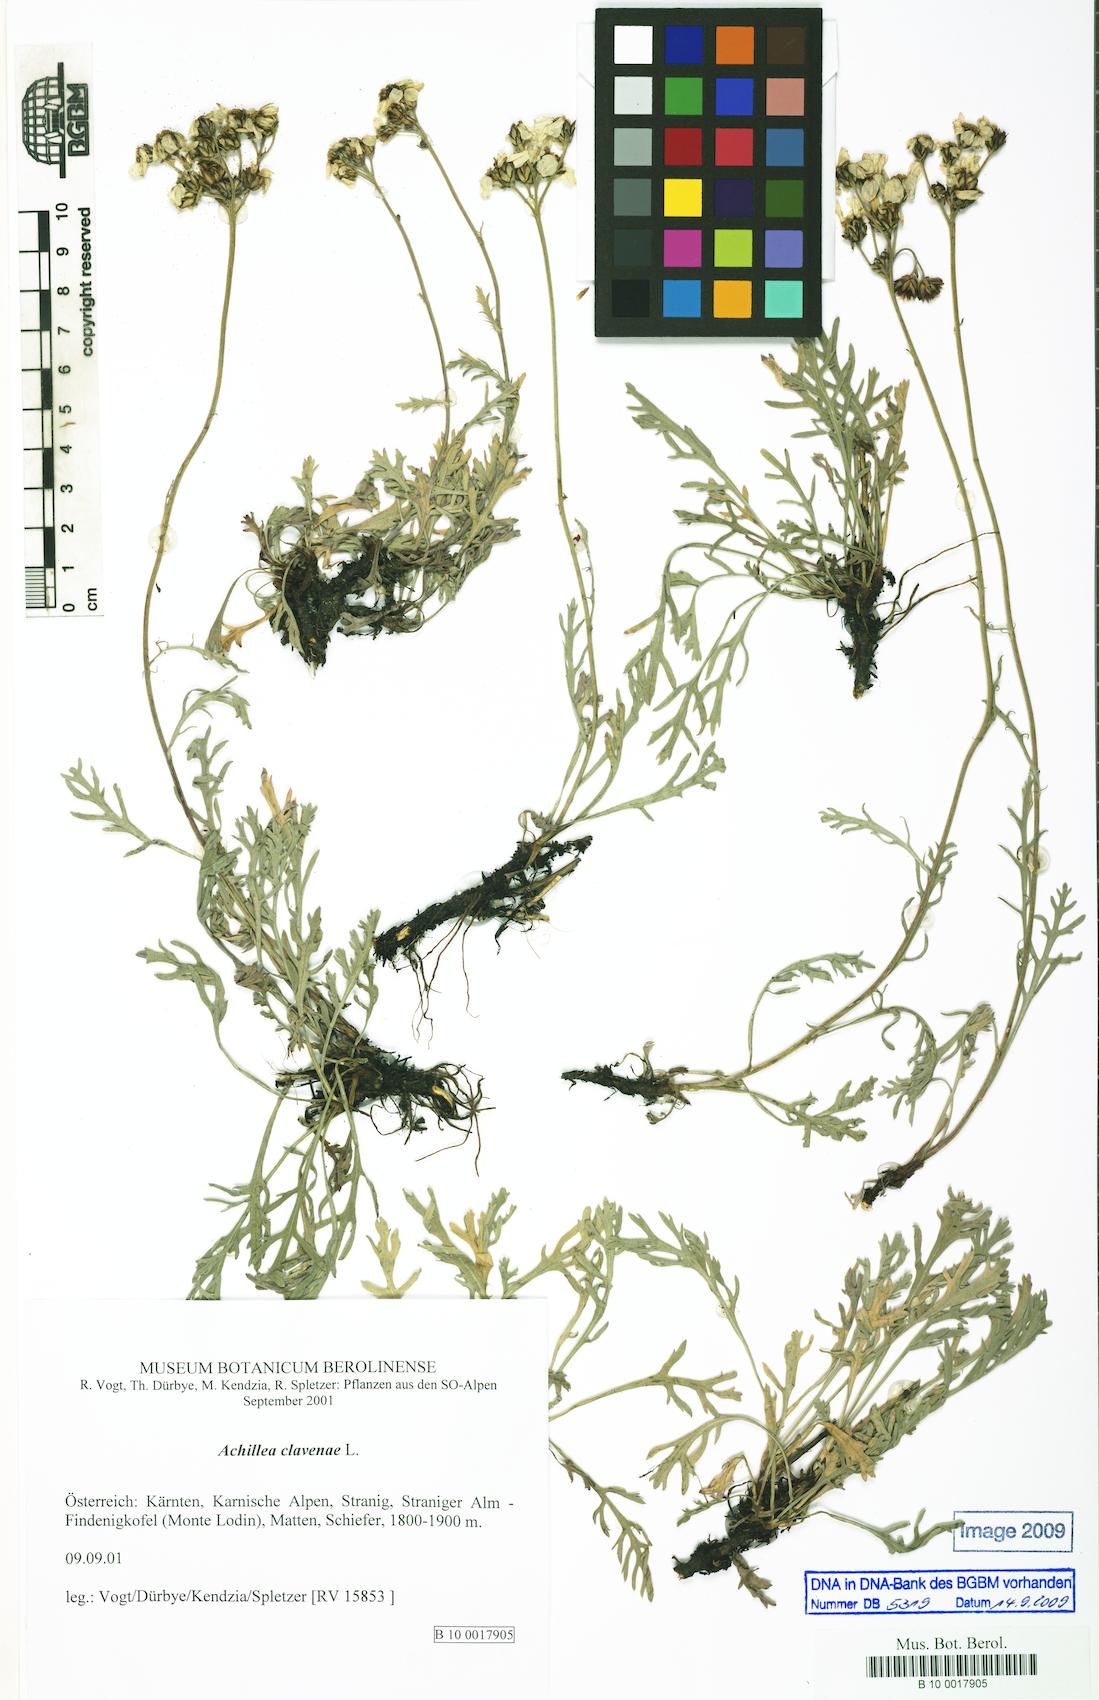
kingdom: Plantae
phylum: Tracheophyta
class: Magnoliopsida
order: Asterales
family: Asteraceae
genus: Achillea
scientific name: Achillea clavennae
